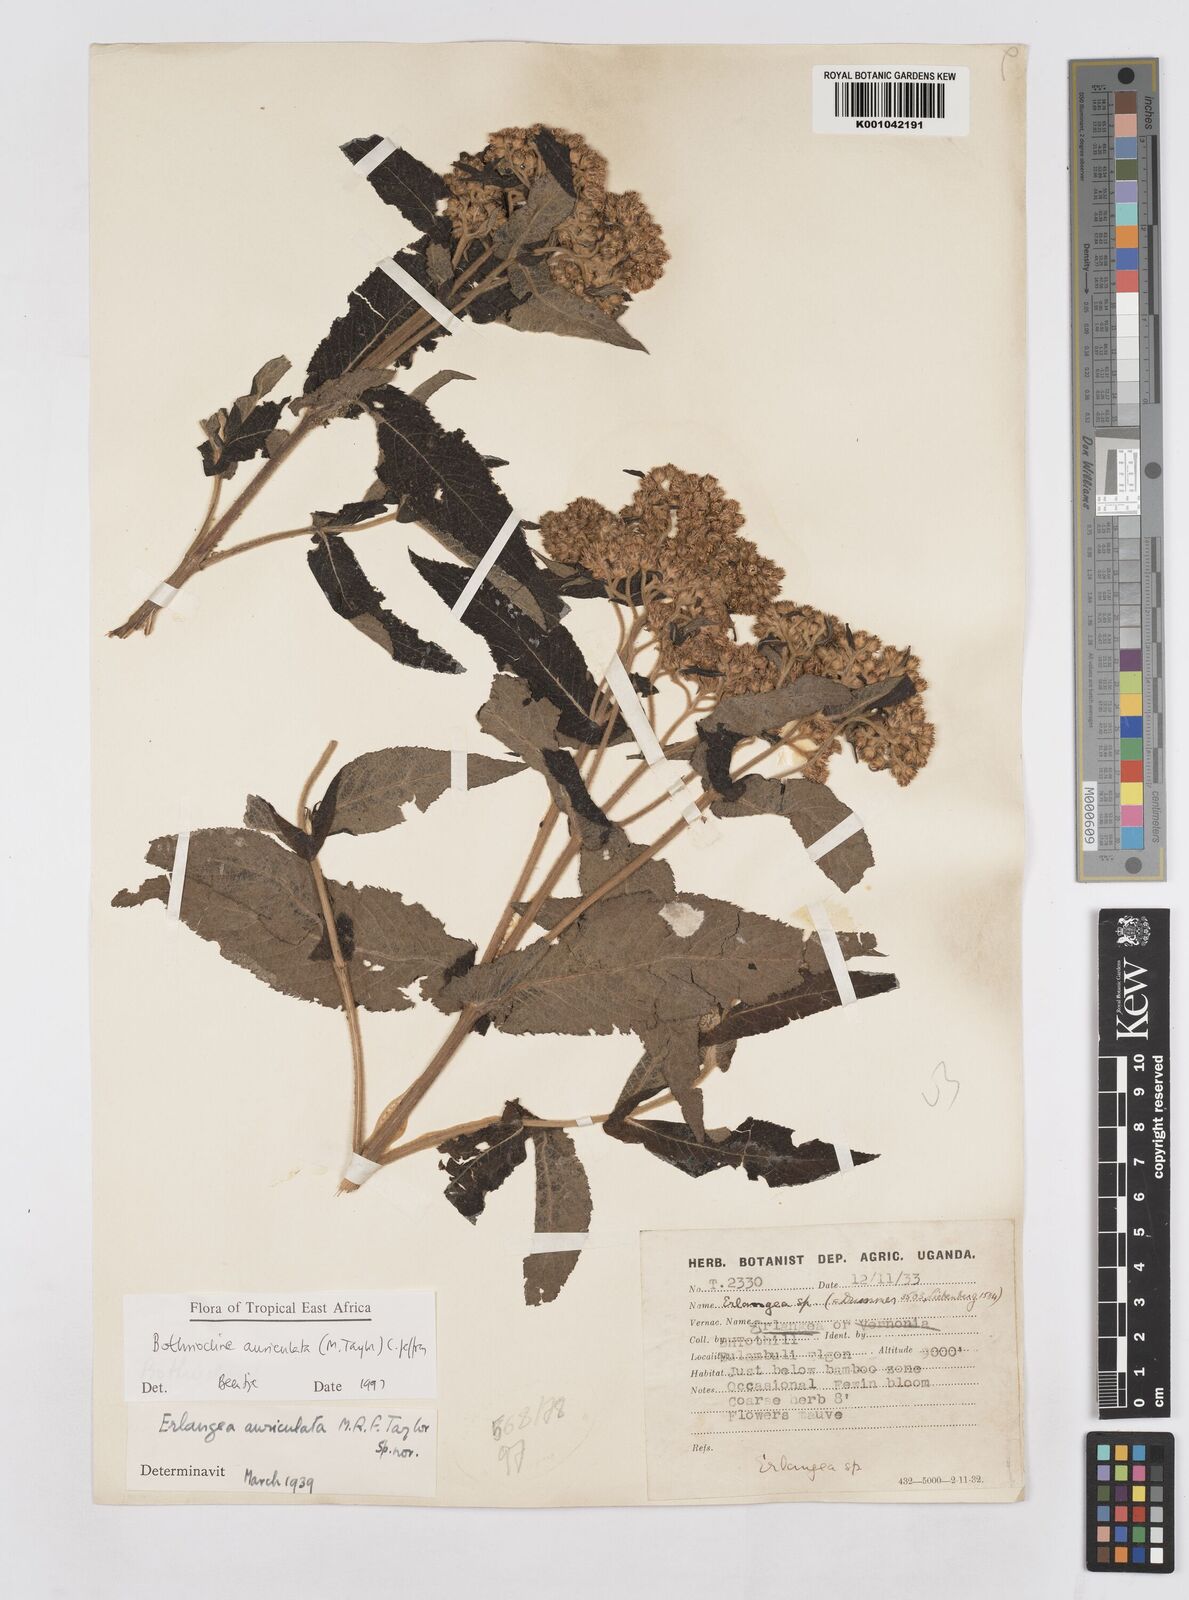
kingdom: Plantae
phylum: Tracheophyta
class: Magnoliopsida
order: Asterales
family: Asteraceae
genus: Bothriocline
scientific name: Bothriocline auriculata
